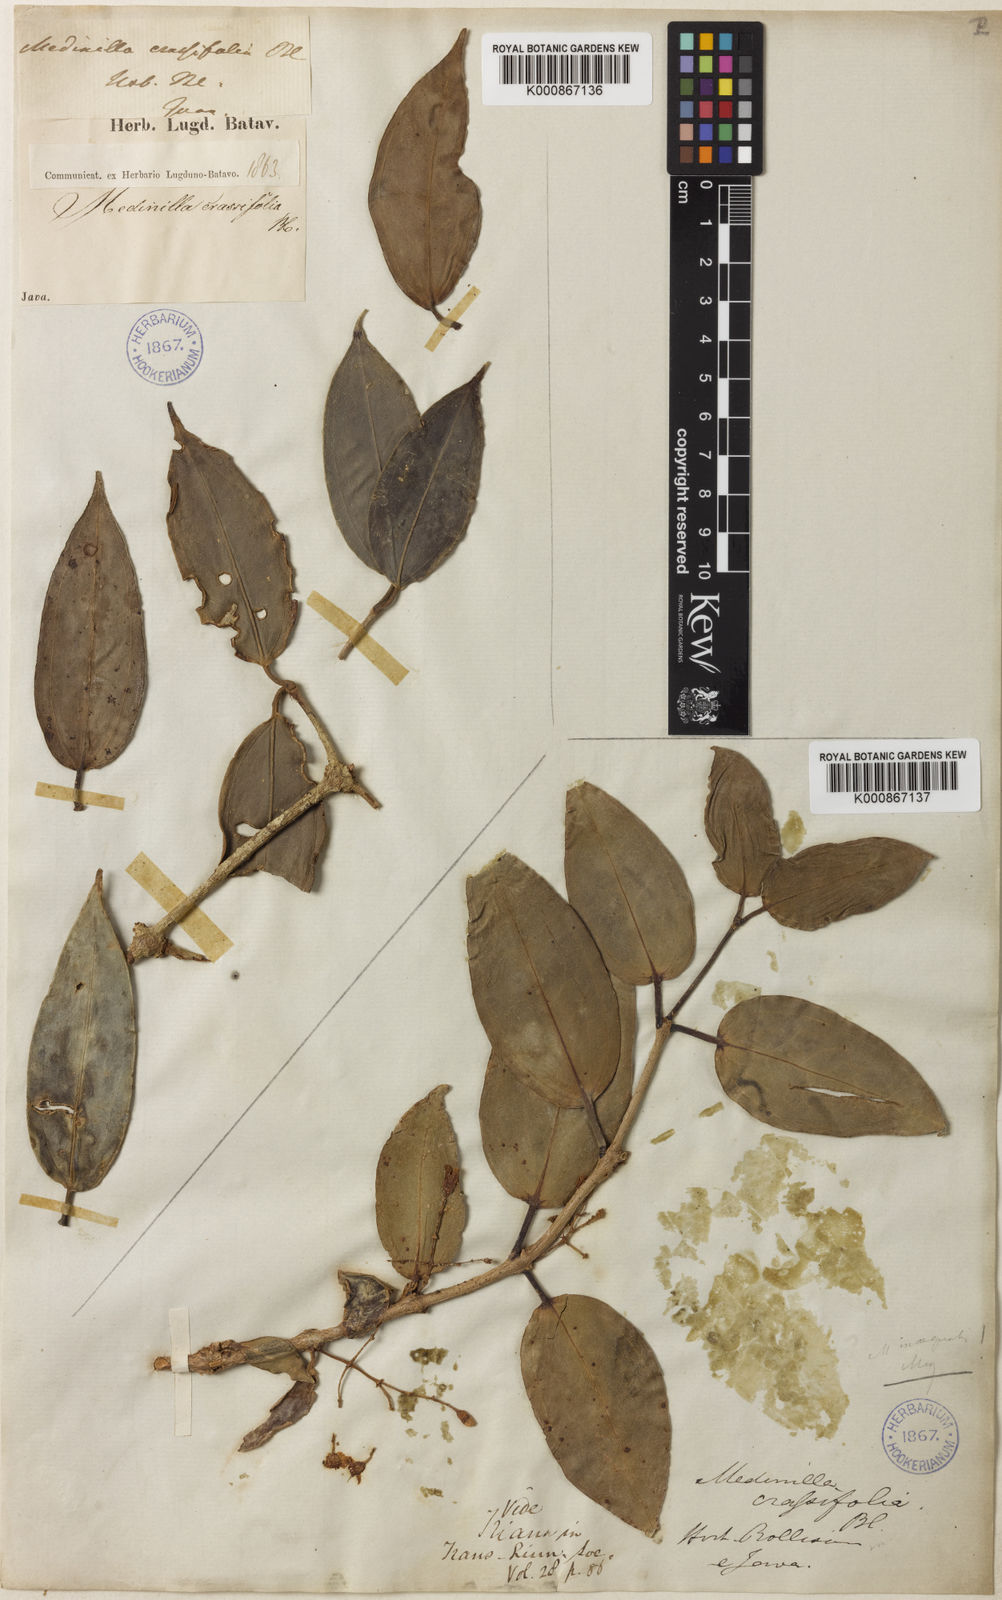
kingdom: Plantae
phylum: Tracheophyta
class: Magnoliopsida
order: Myrtales
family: Melastomataceae
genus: Medinilla
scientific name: Medinilla crassifolia
